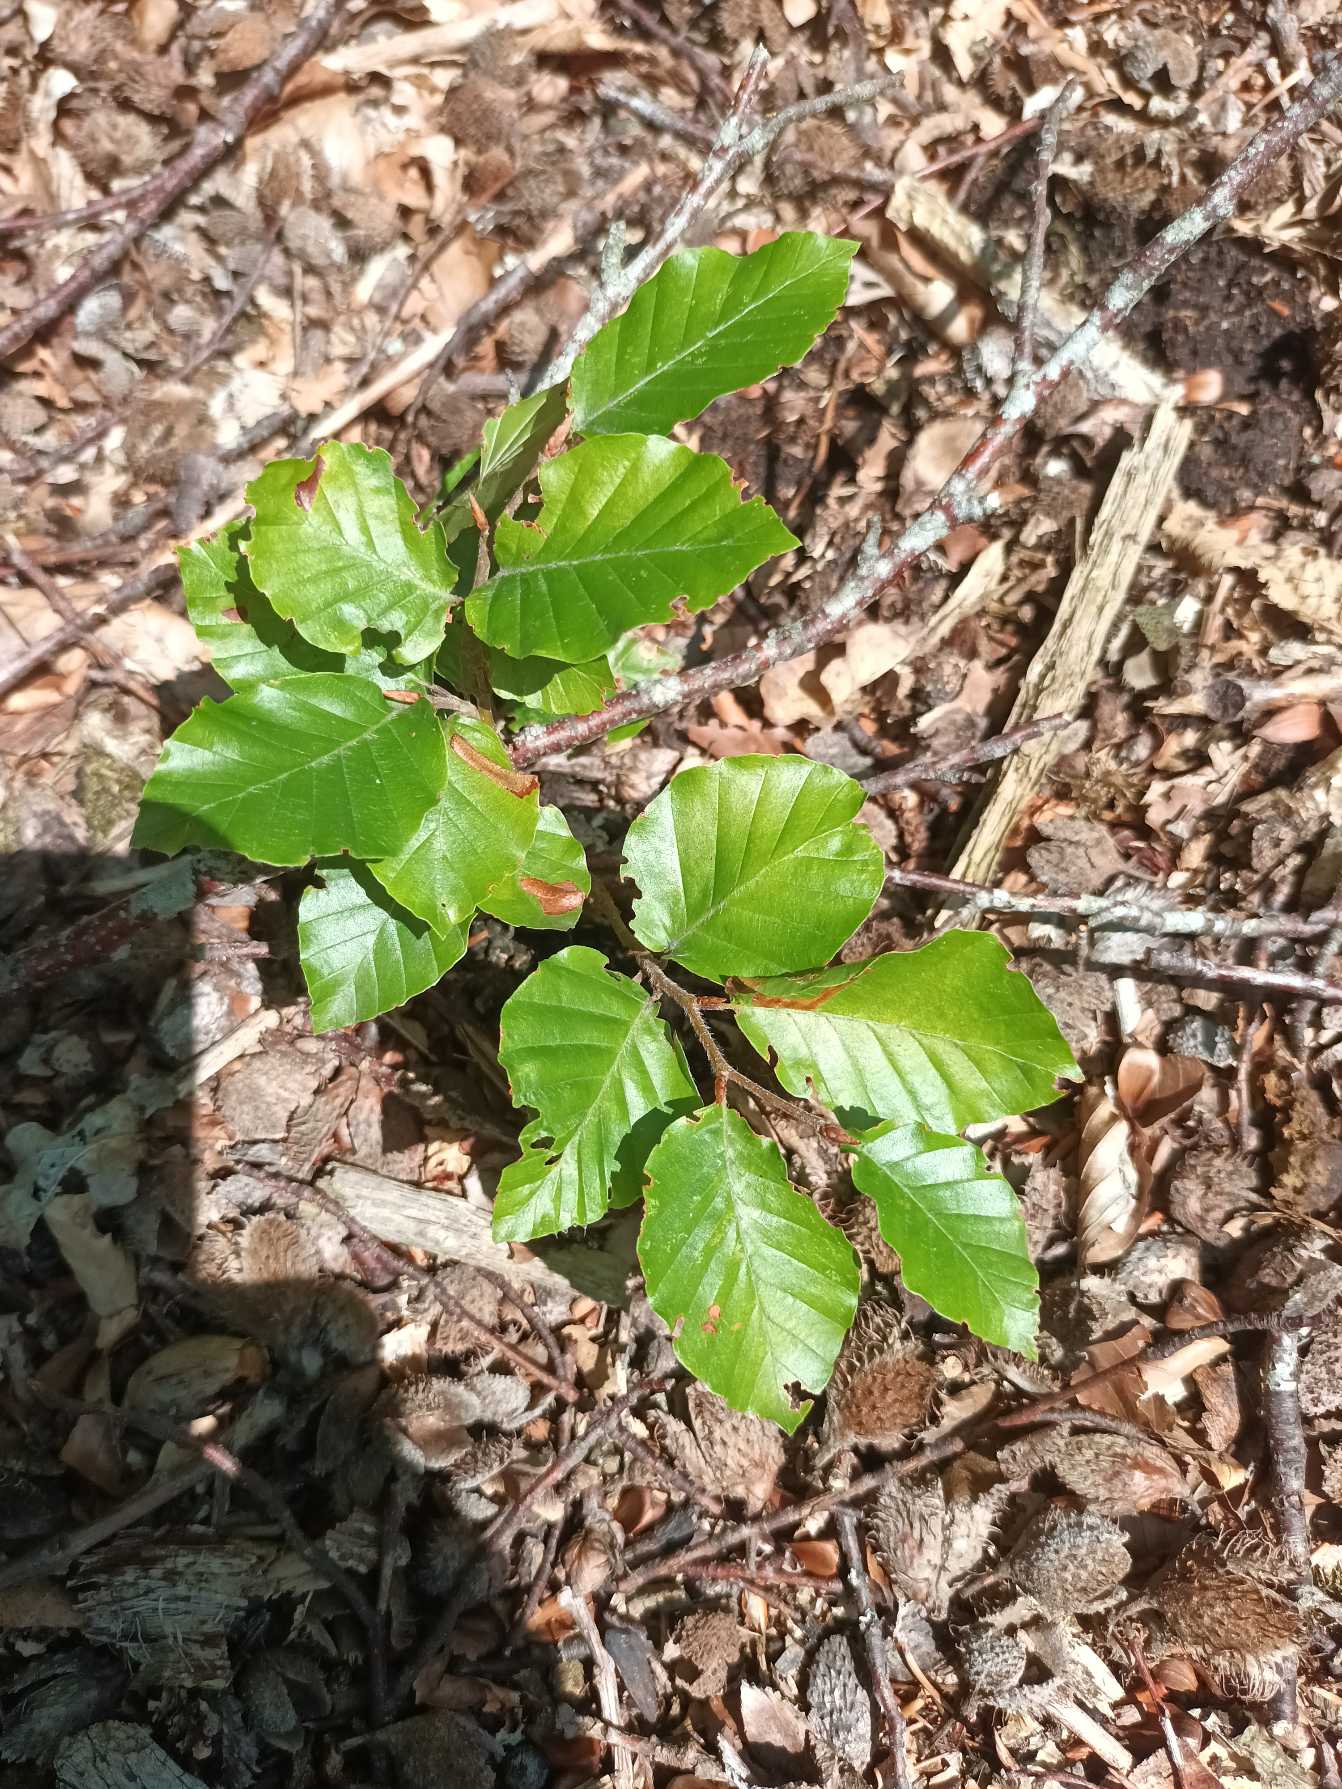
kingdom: Plantae
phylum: Tracheophyta
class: Magnoliopsida
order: Fagales
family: Fagaceae
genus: Fagus
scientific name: Fagus sylvatica
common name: Bøg
